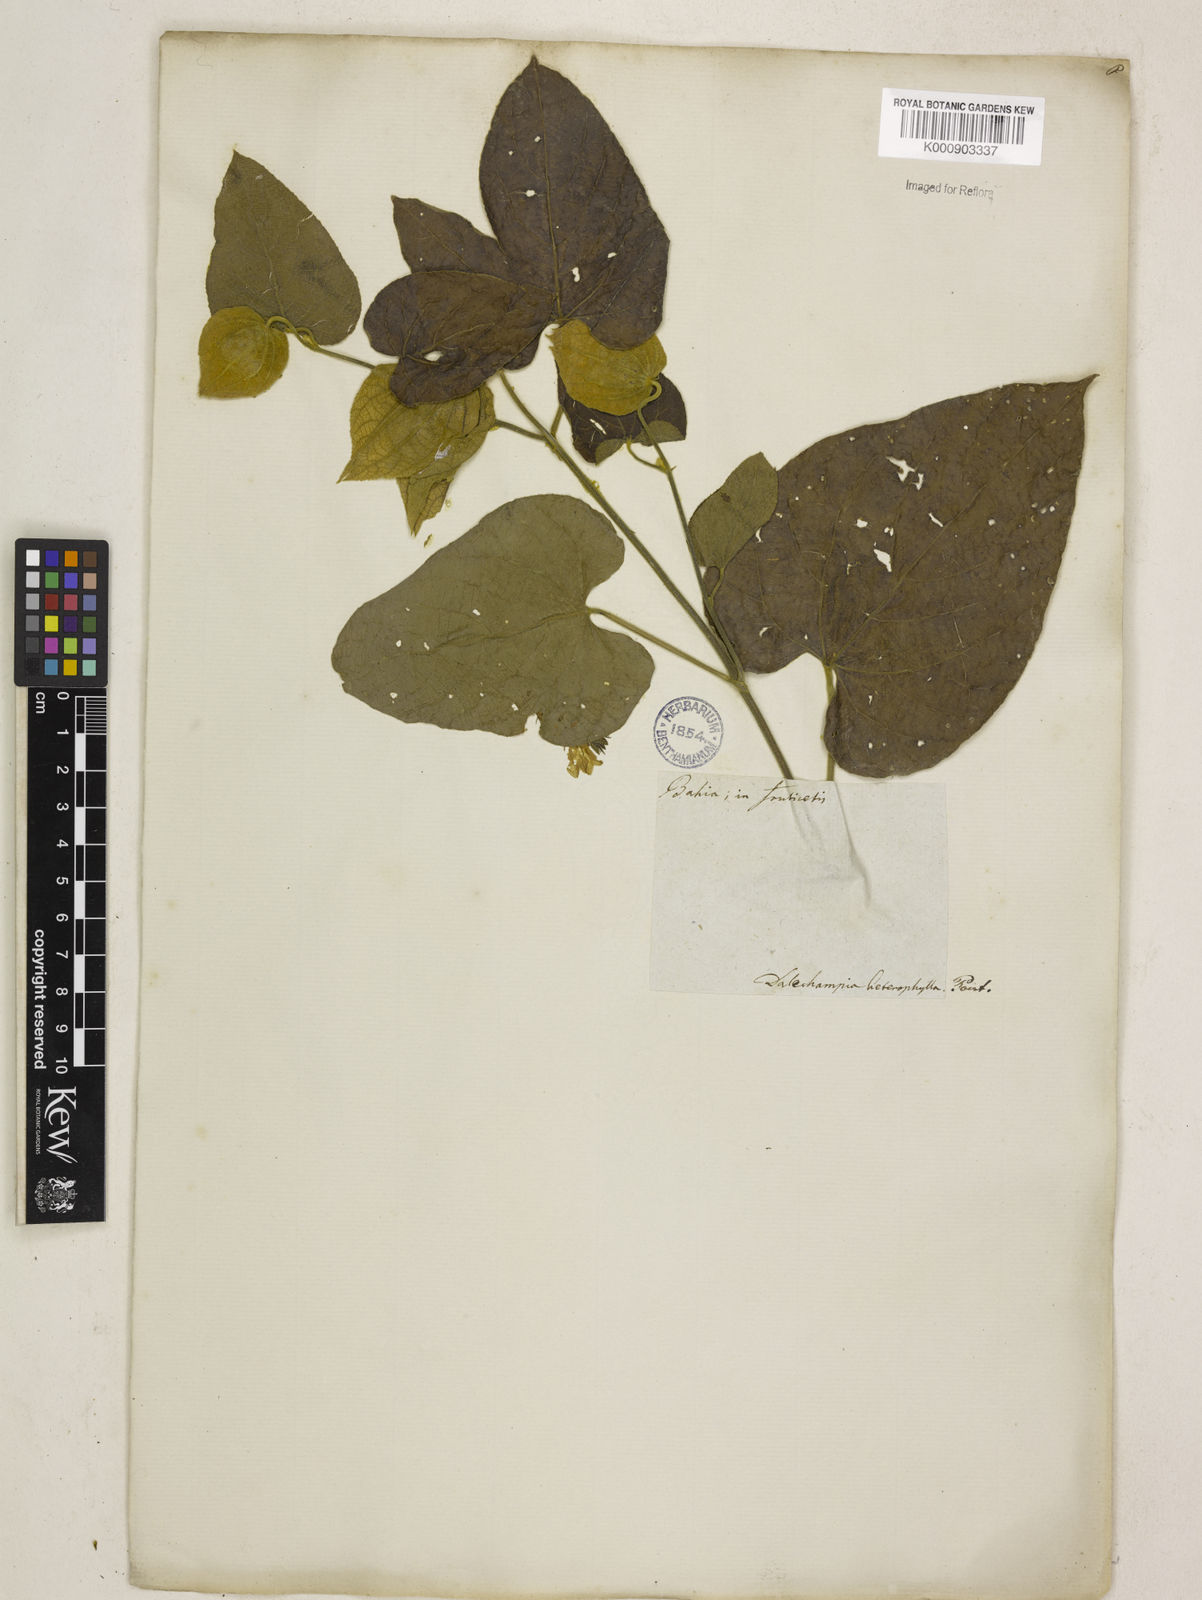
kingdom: Plantae
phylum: Tracheophyta
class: Magnoliopsida
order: Malpighiales
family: Euphorbiaceae
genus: Dalechampia
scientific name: Dalechampia tiliifolia
